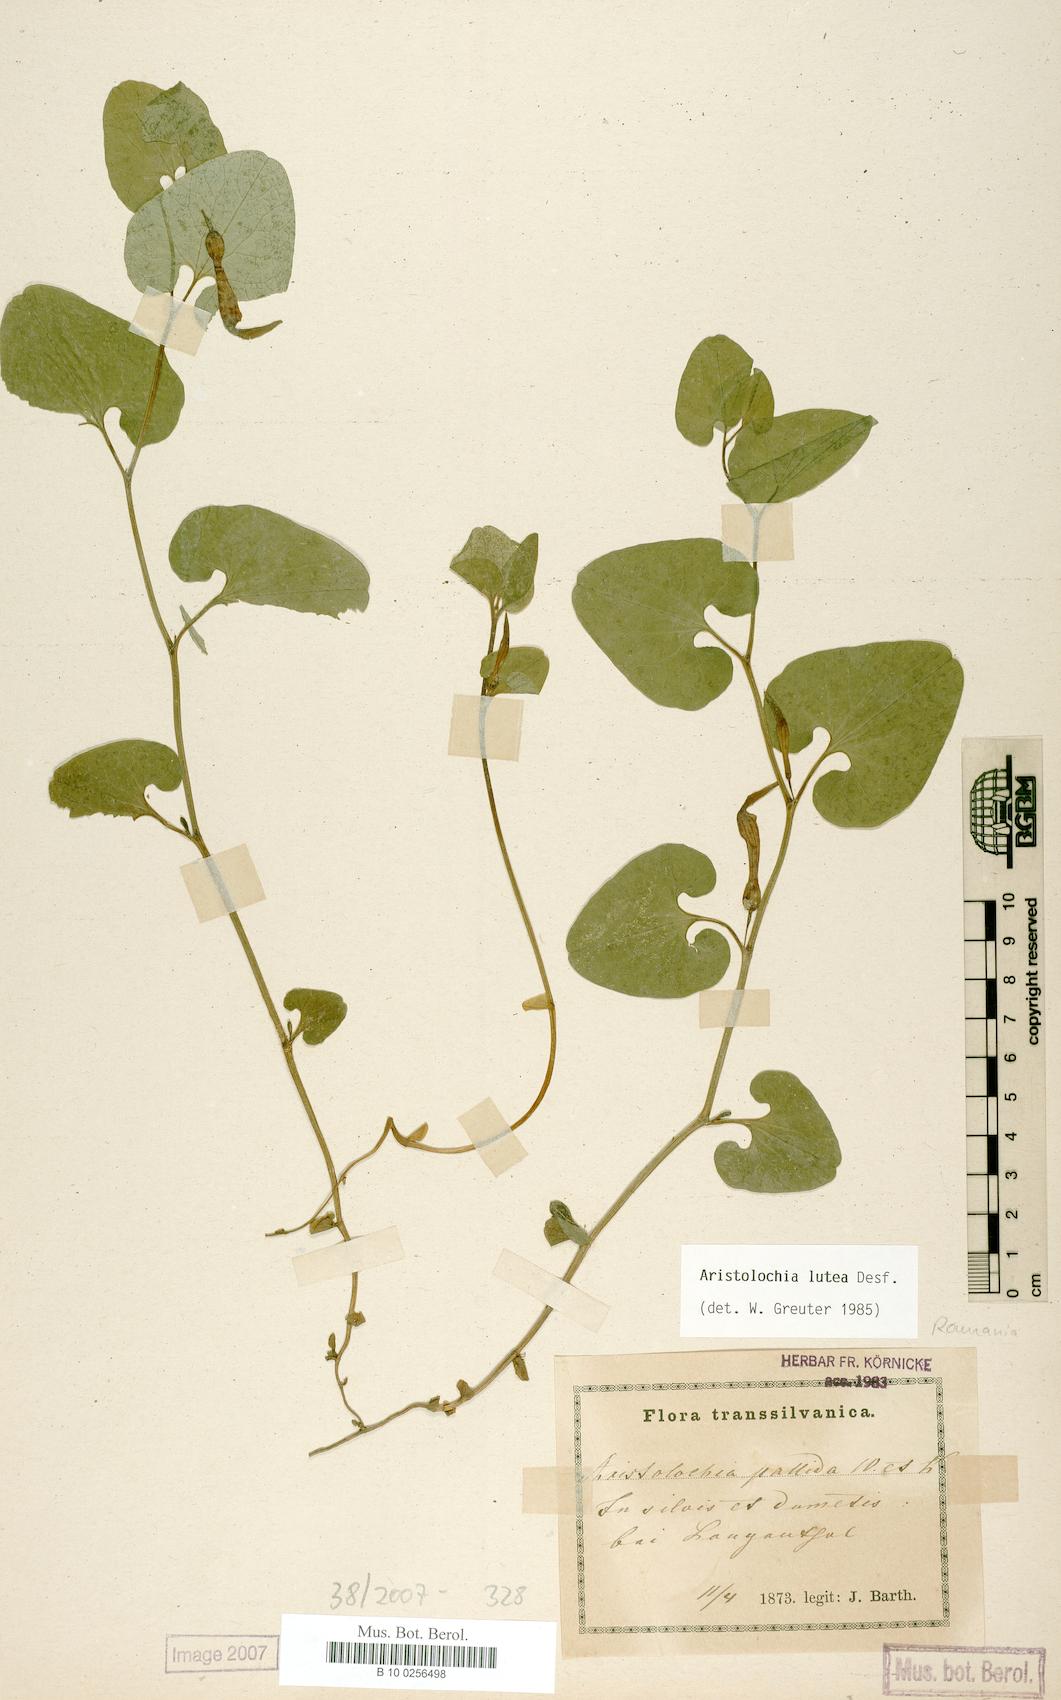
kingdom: Plantae
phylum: Tracheophyta
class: Magnoliopsida
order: Piperales
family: Aristolochiaceae
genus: Aristolochia
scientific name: Aristolochia lutea
